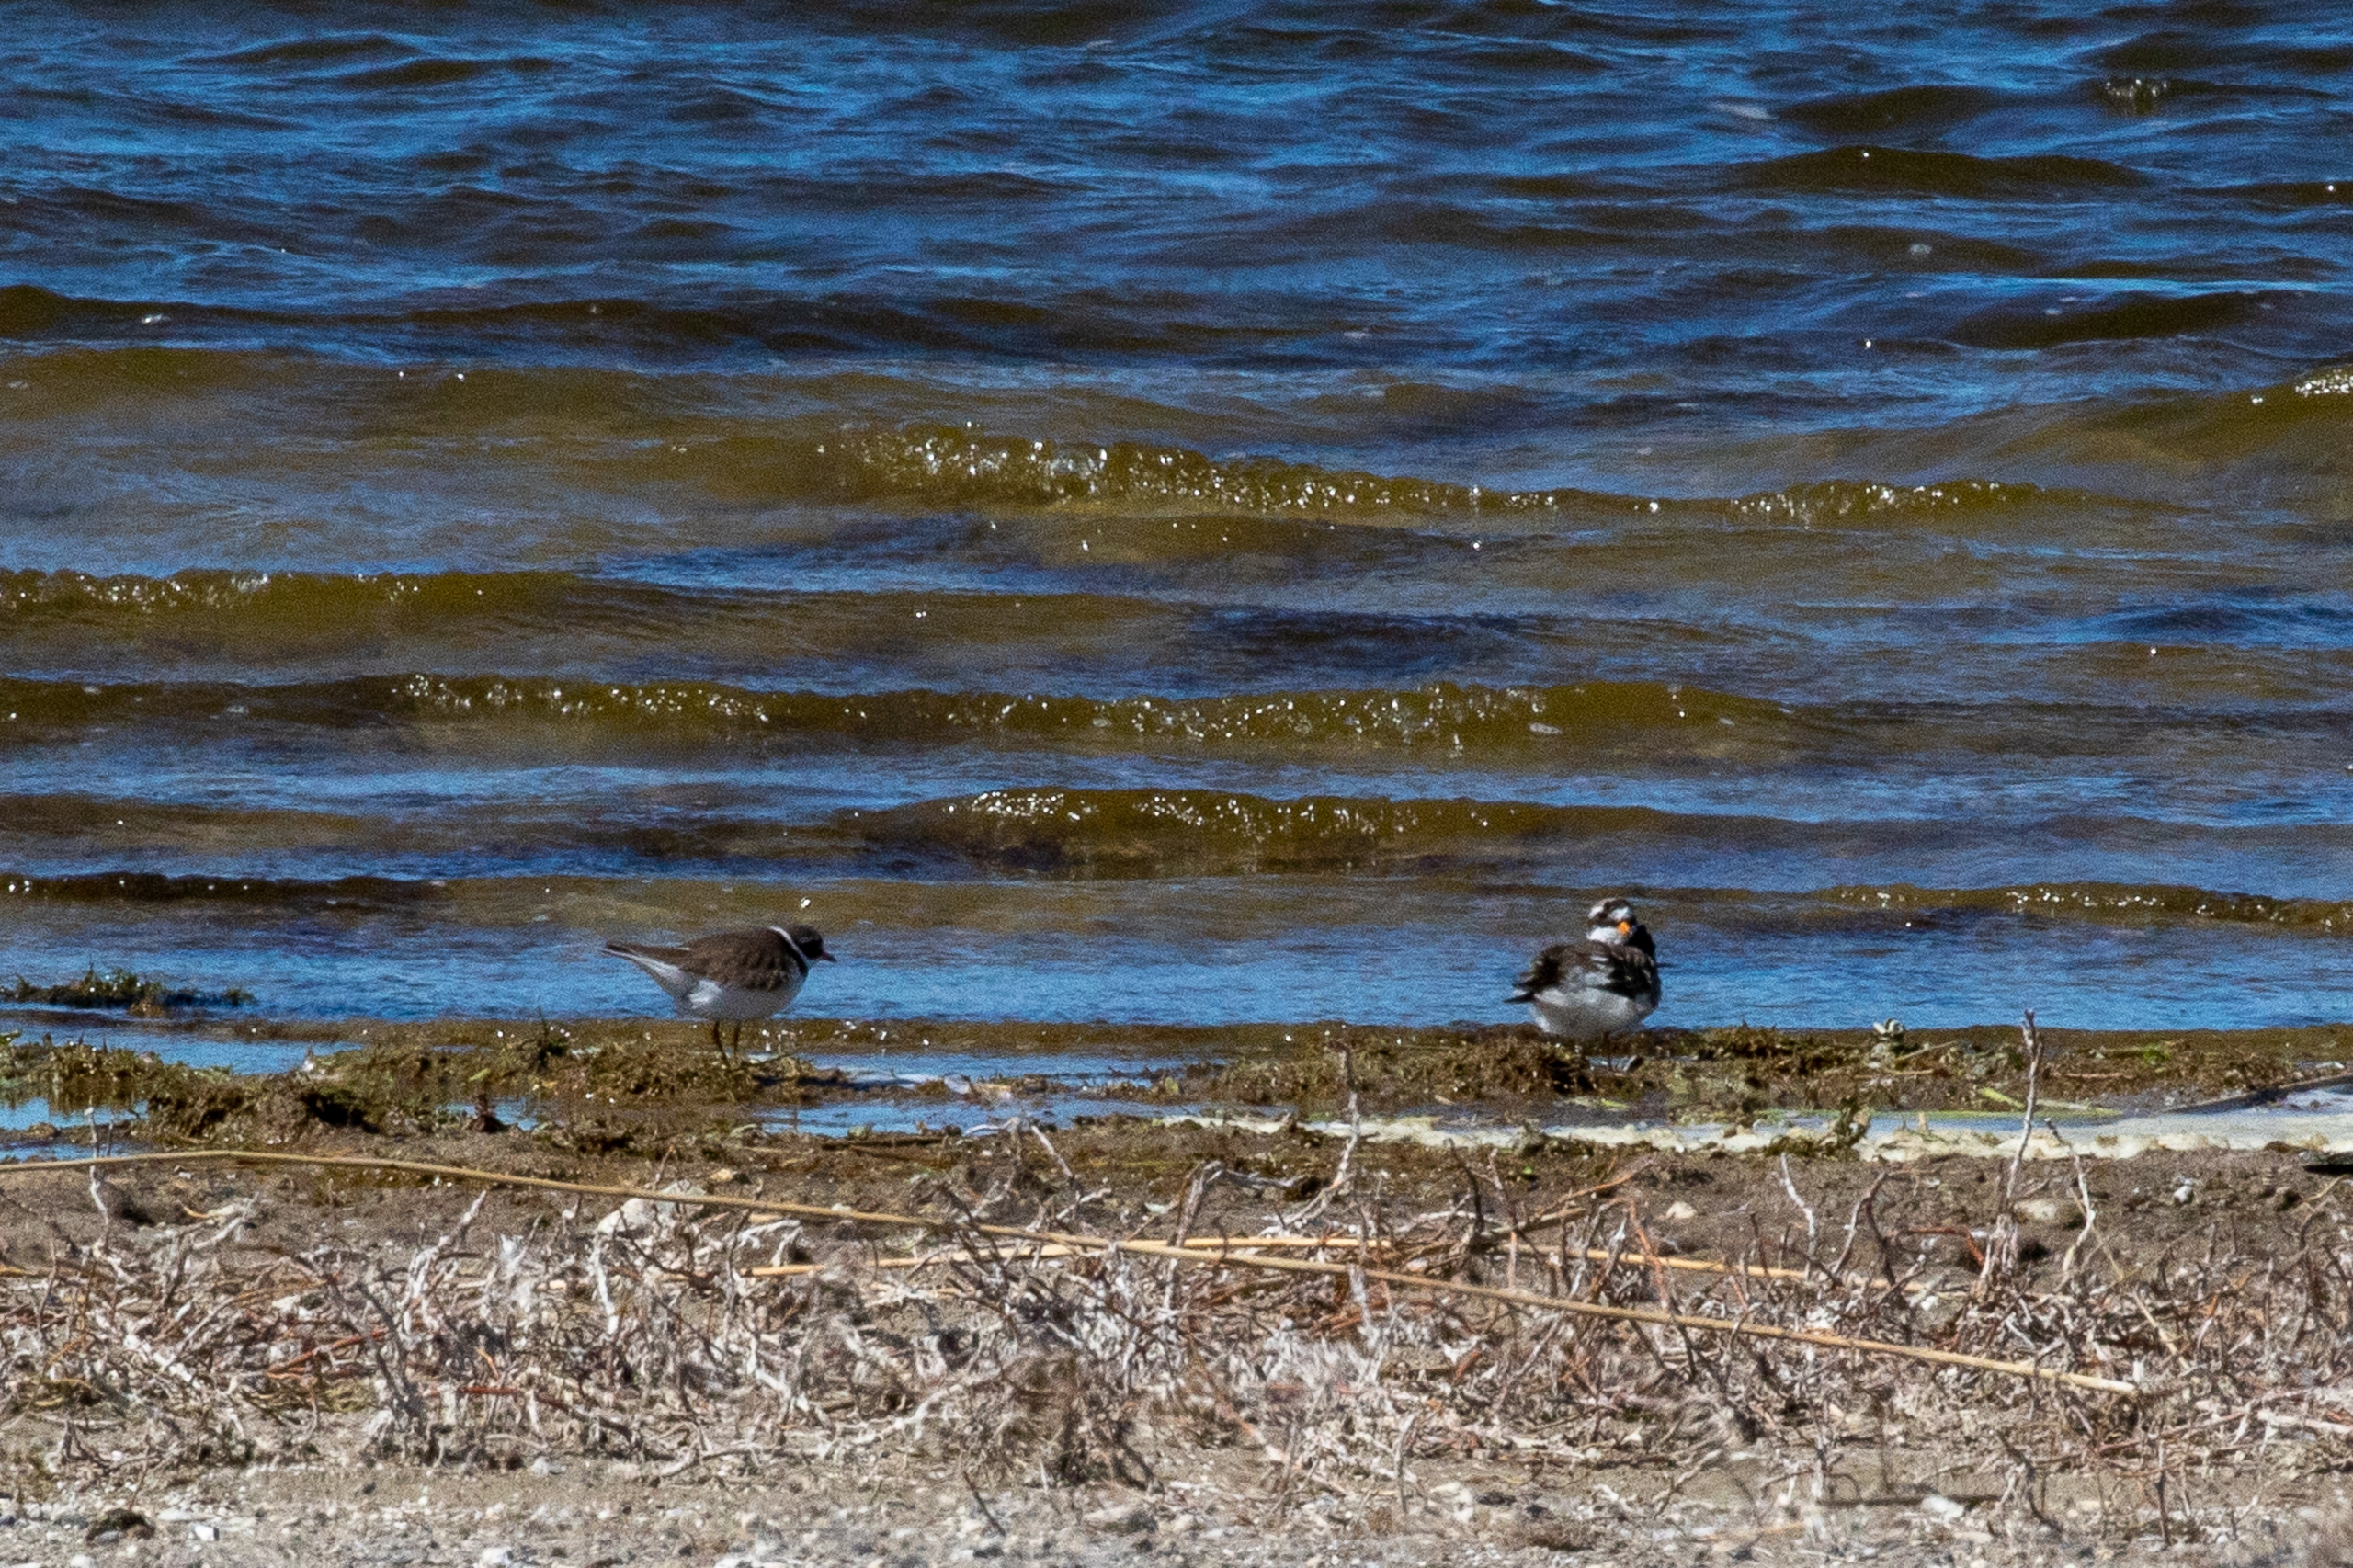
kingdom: Animalia
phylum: Chordata
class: Aves
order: Charadriiformes
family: Charadriidae
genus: Charadrius
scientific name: Charadrius hiaticula
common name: Stor præstekrave
